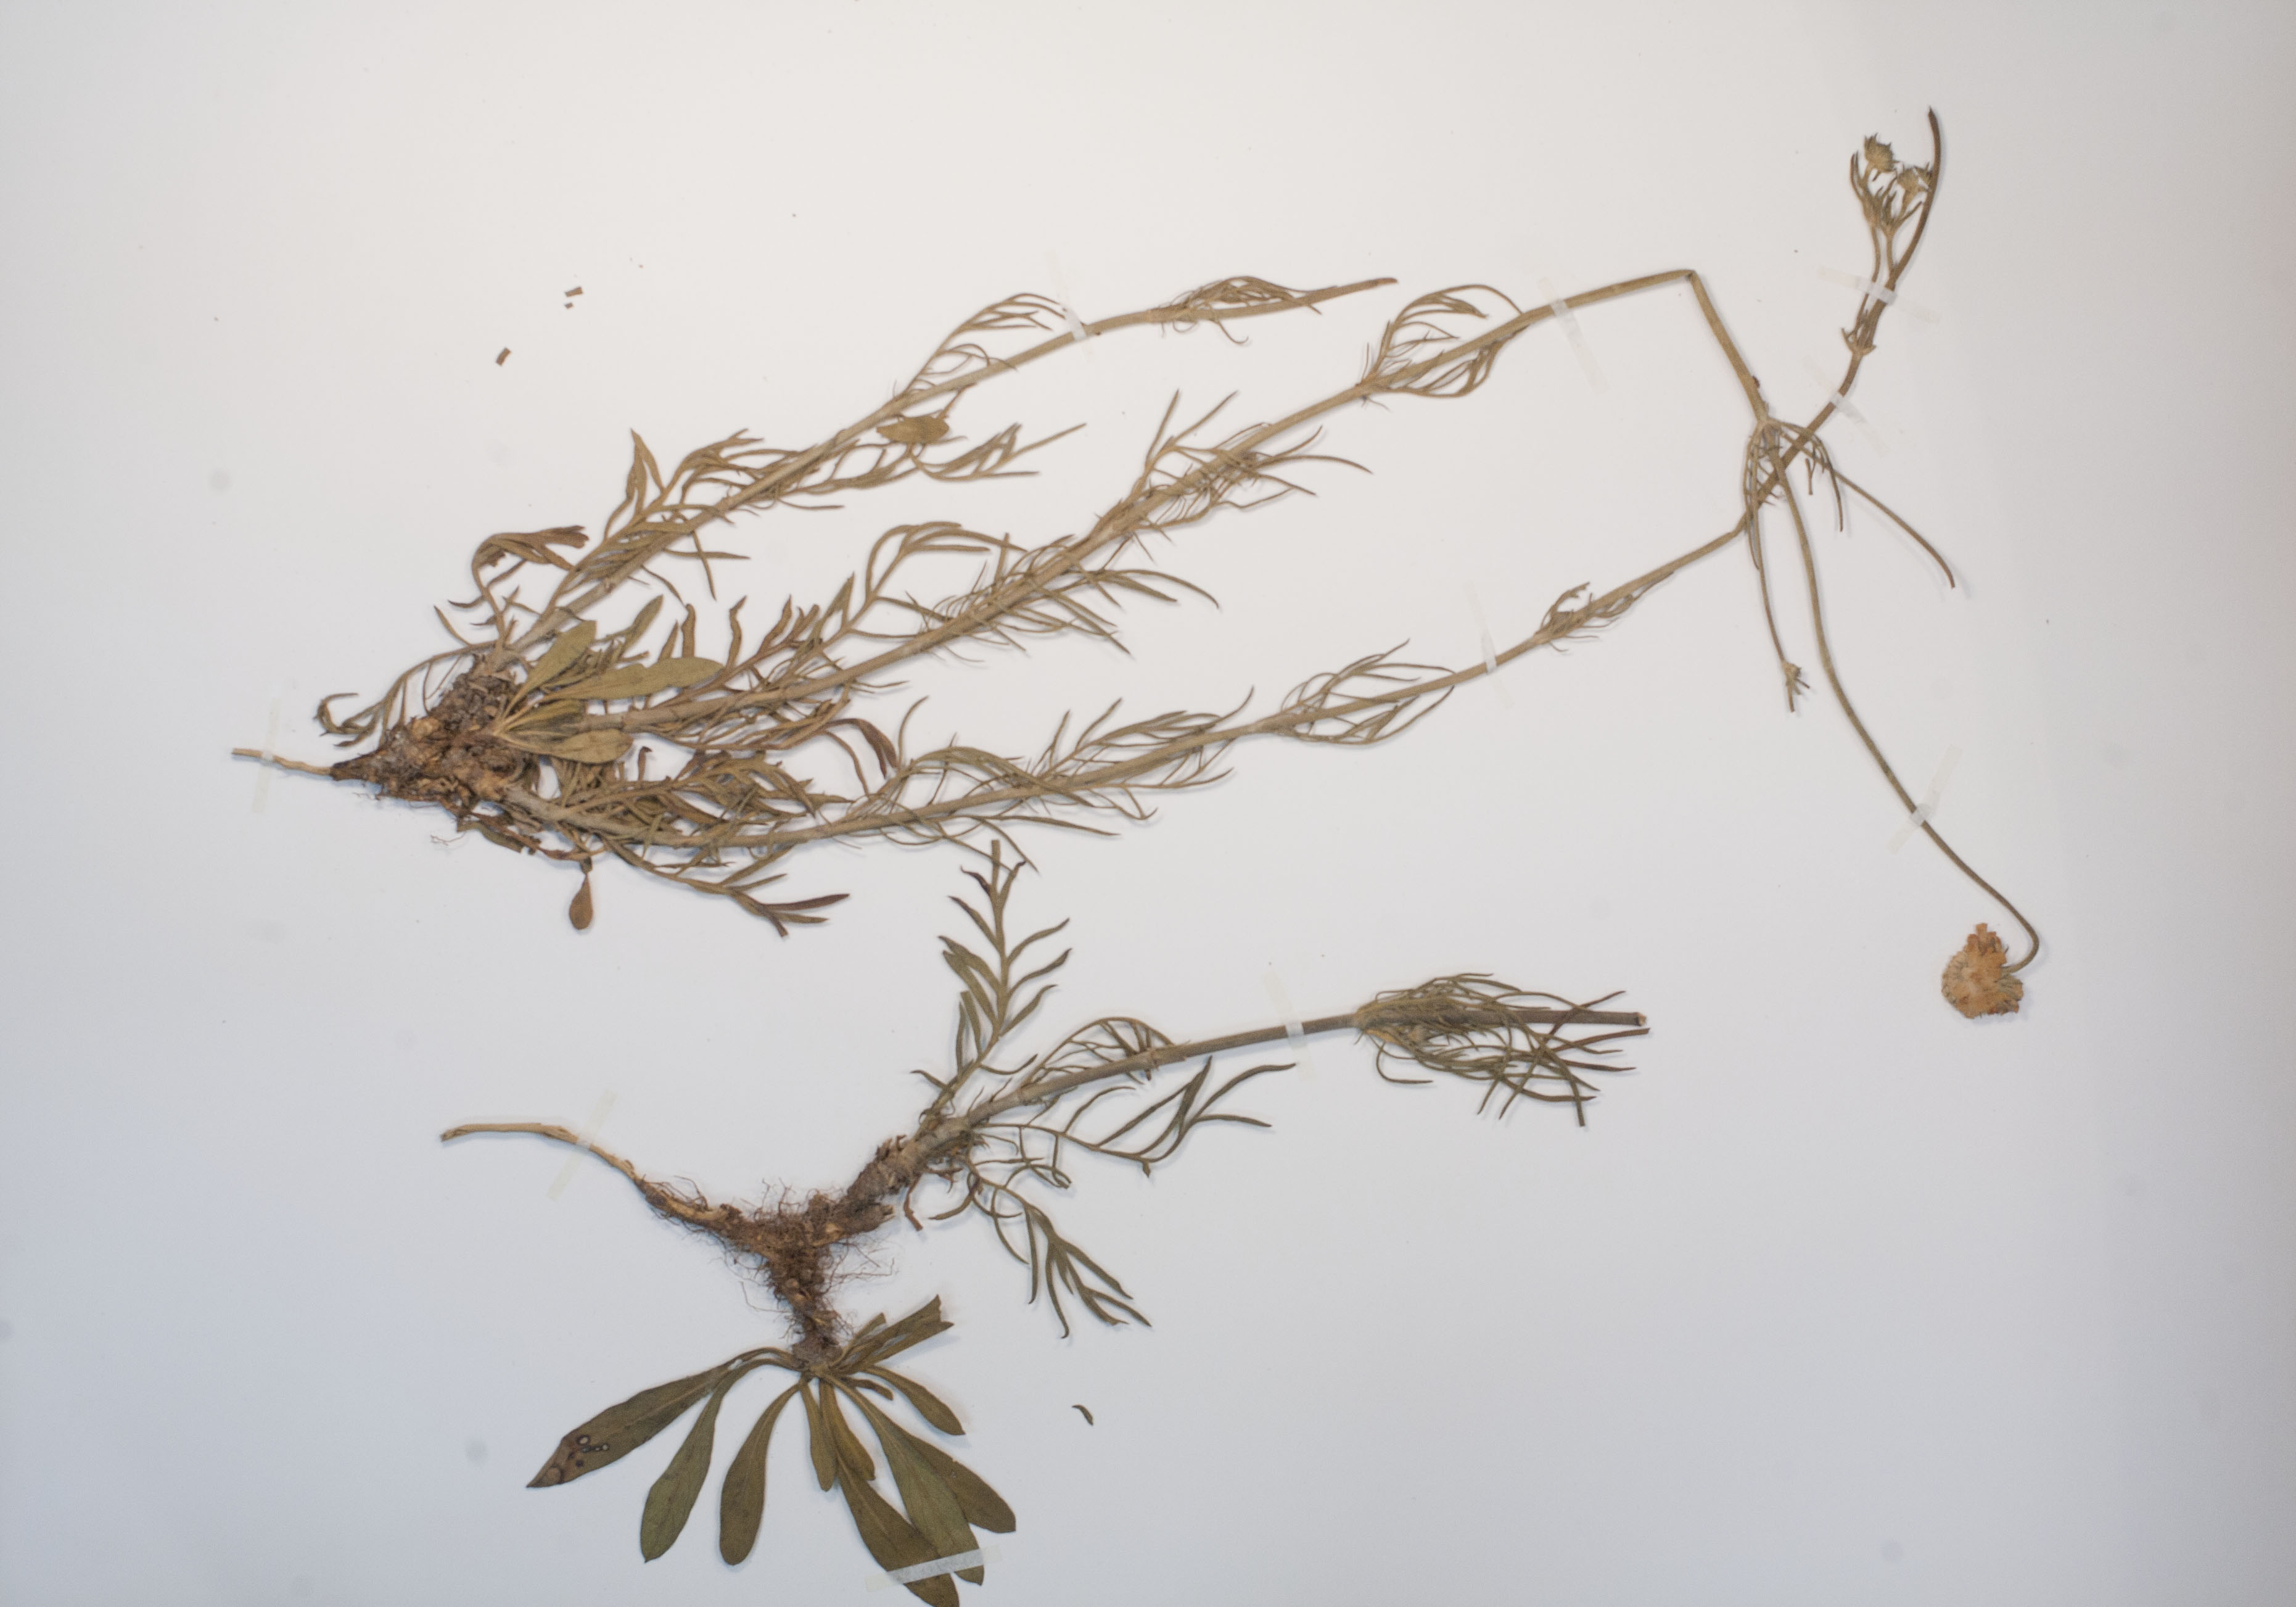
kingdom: Plantae
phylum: Tracheophyta
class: Magnoliopsida
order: Dipsacales
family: Caprifoliaceae
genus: Scabiosa
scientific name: Scabiosa canescens
